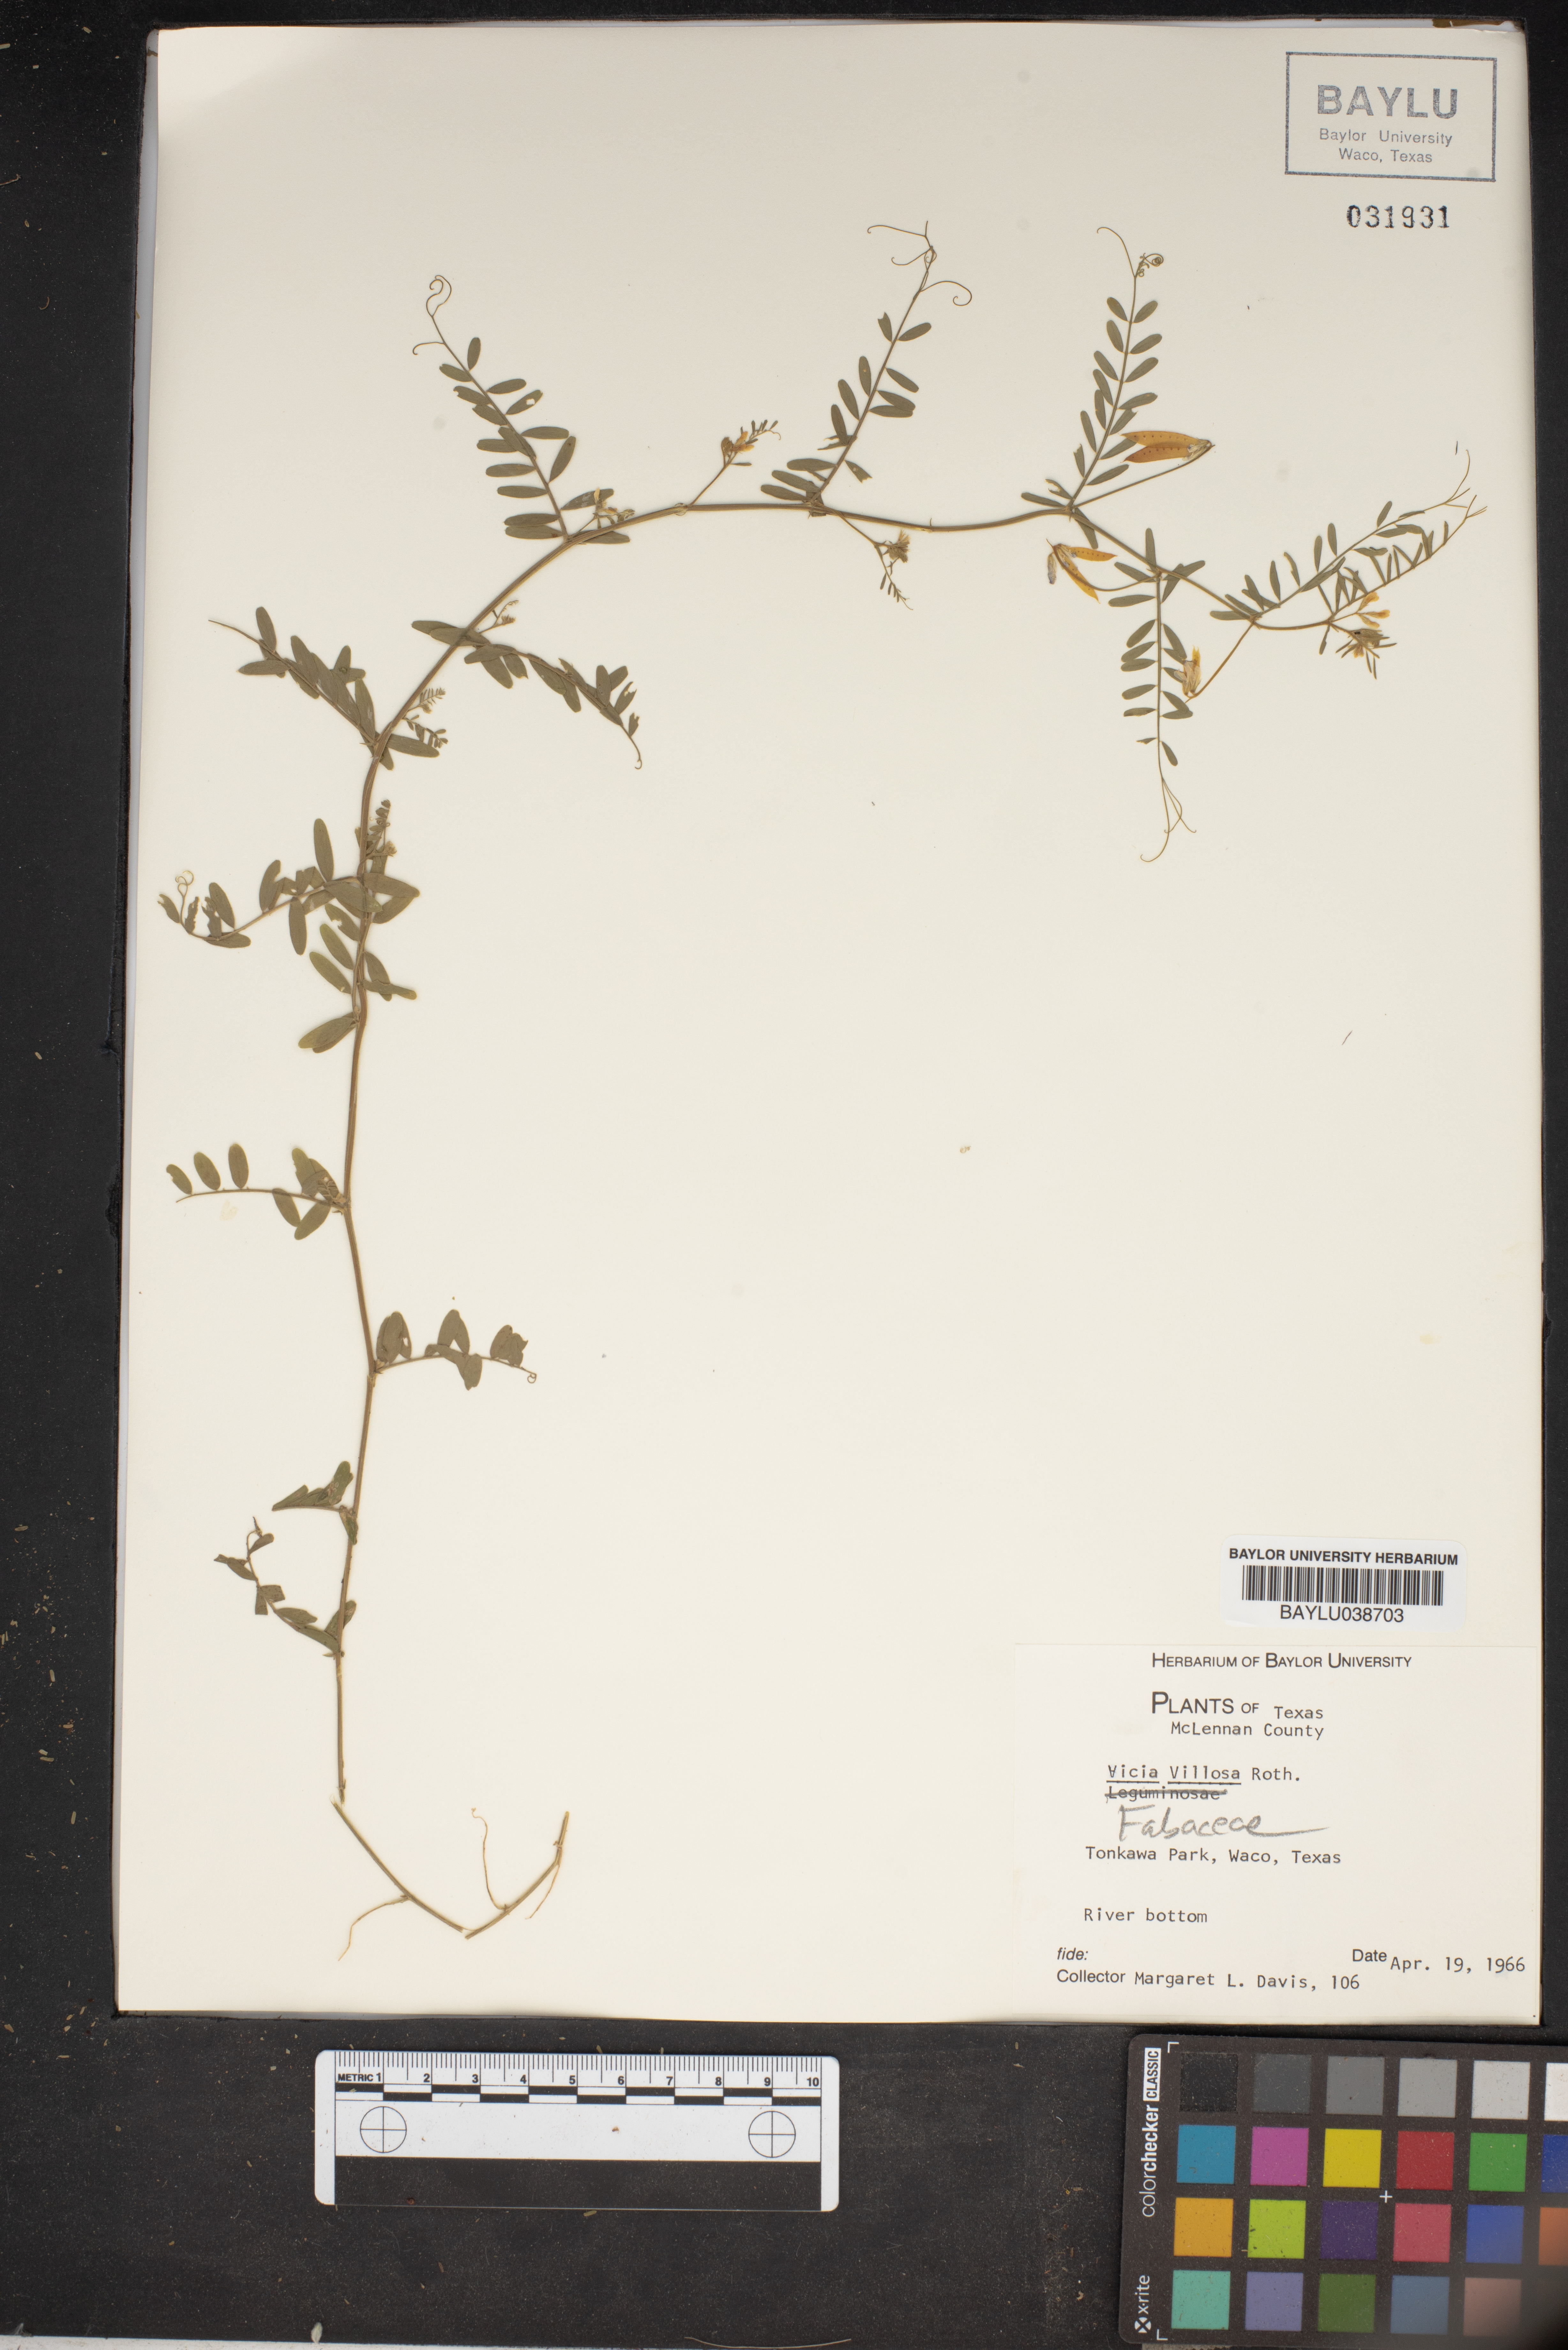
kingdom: Plantae
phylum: Tracheophyta
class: Magnoliopsida
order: Fabales
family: Fabaceae
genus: Vicia
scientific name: Vicia villosa
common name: Fodder vetch
